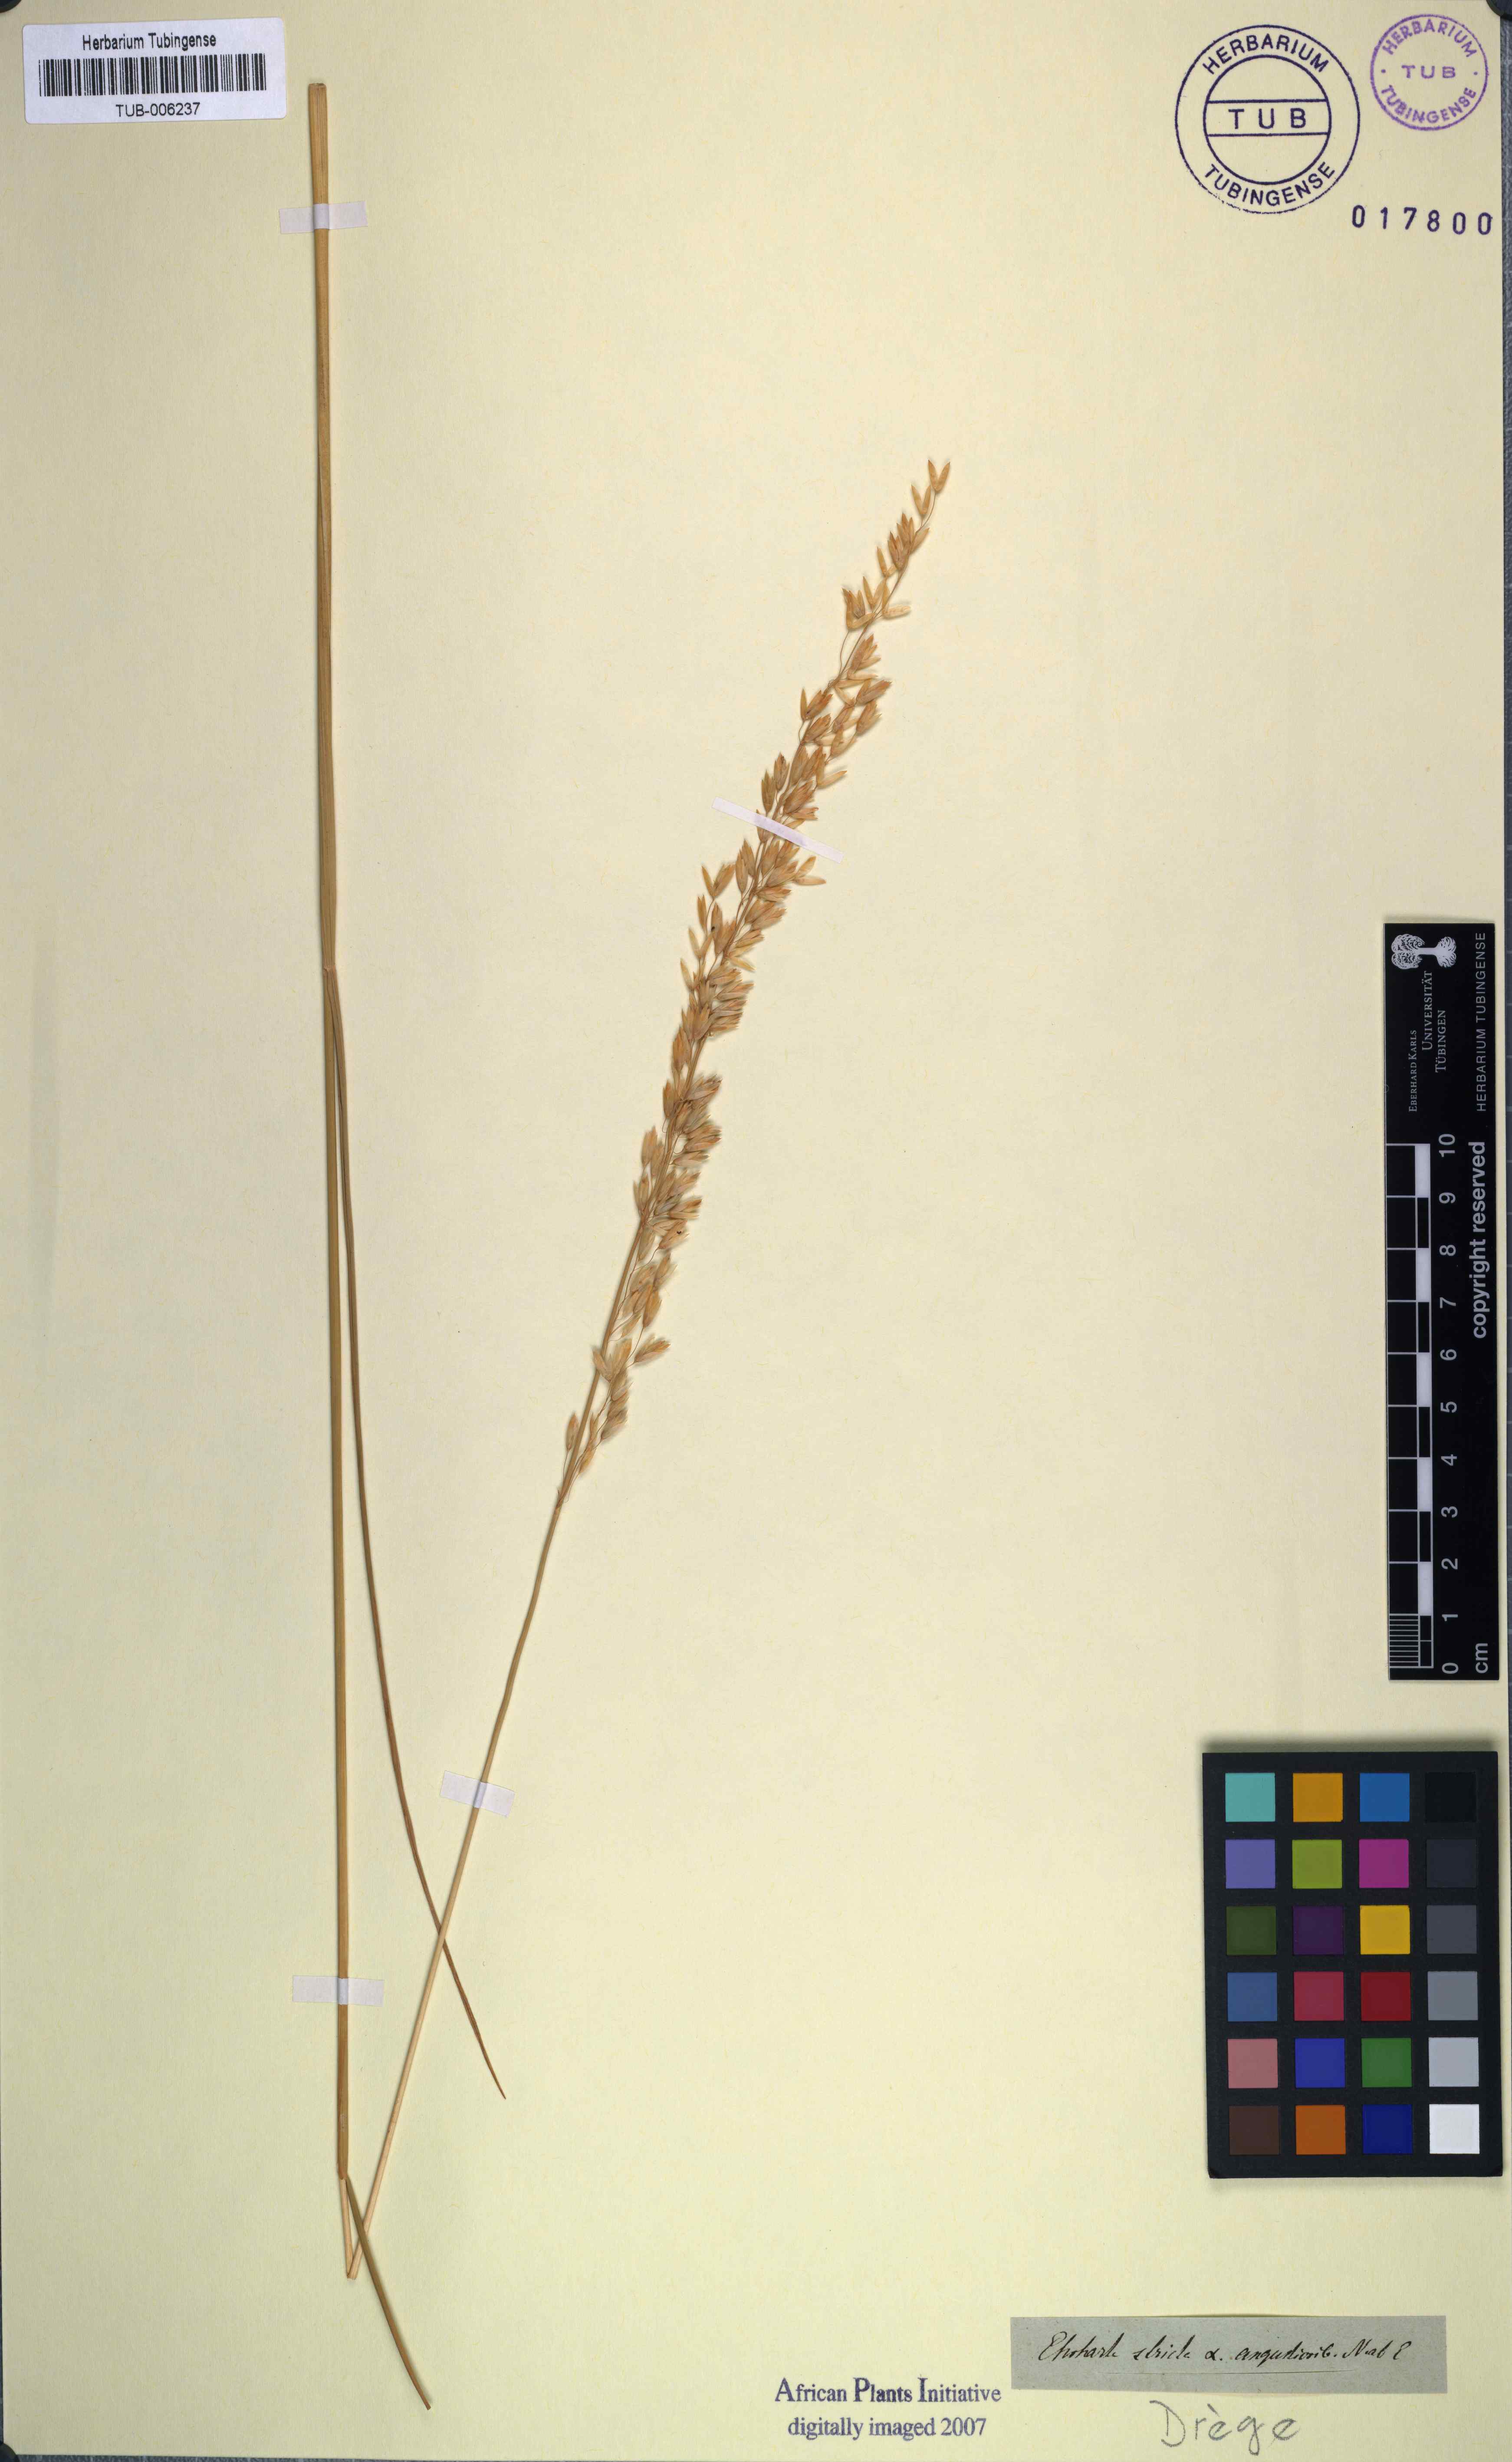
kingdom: Plantae
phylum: Tracheophyta
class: Liliopsida
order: Poales
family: Poaceae
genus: Ehrharta
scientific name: Ehrharta calycina
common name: Perennial veldtgrass
